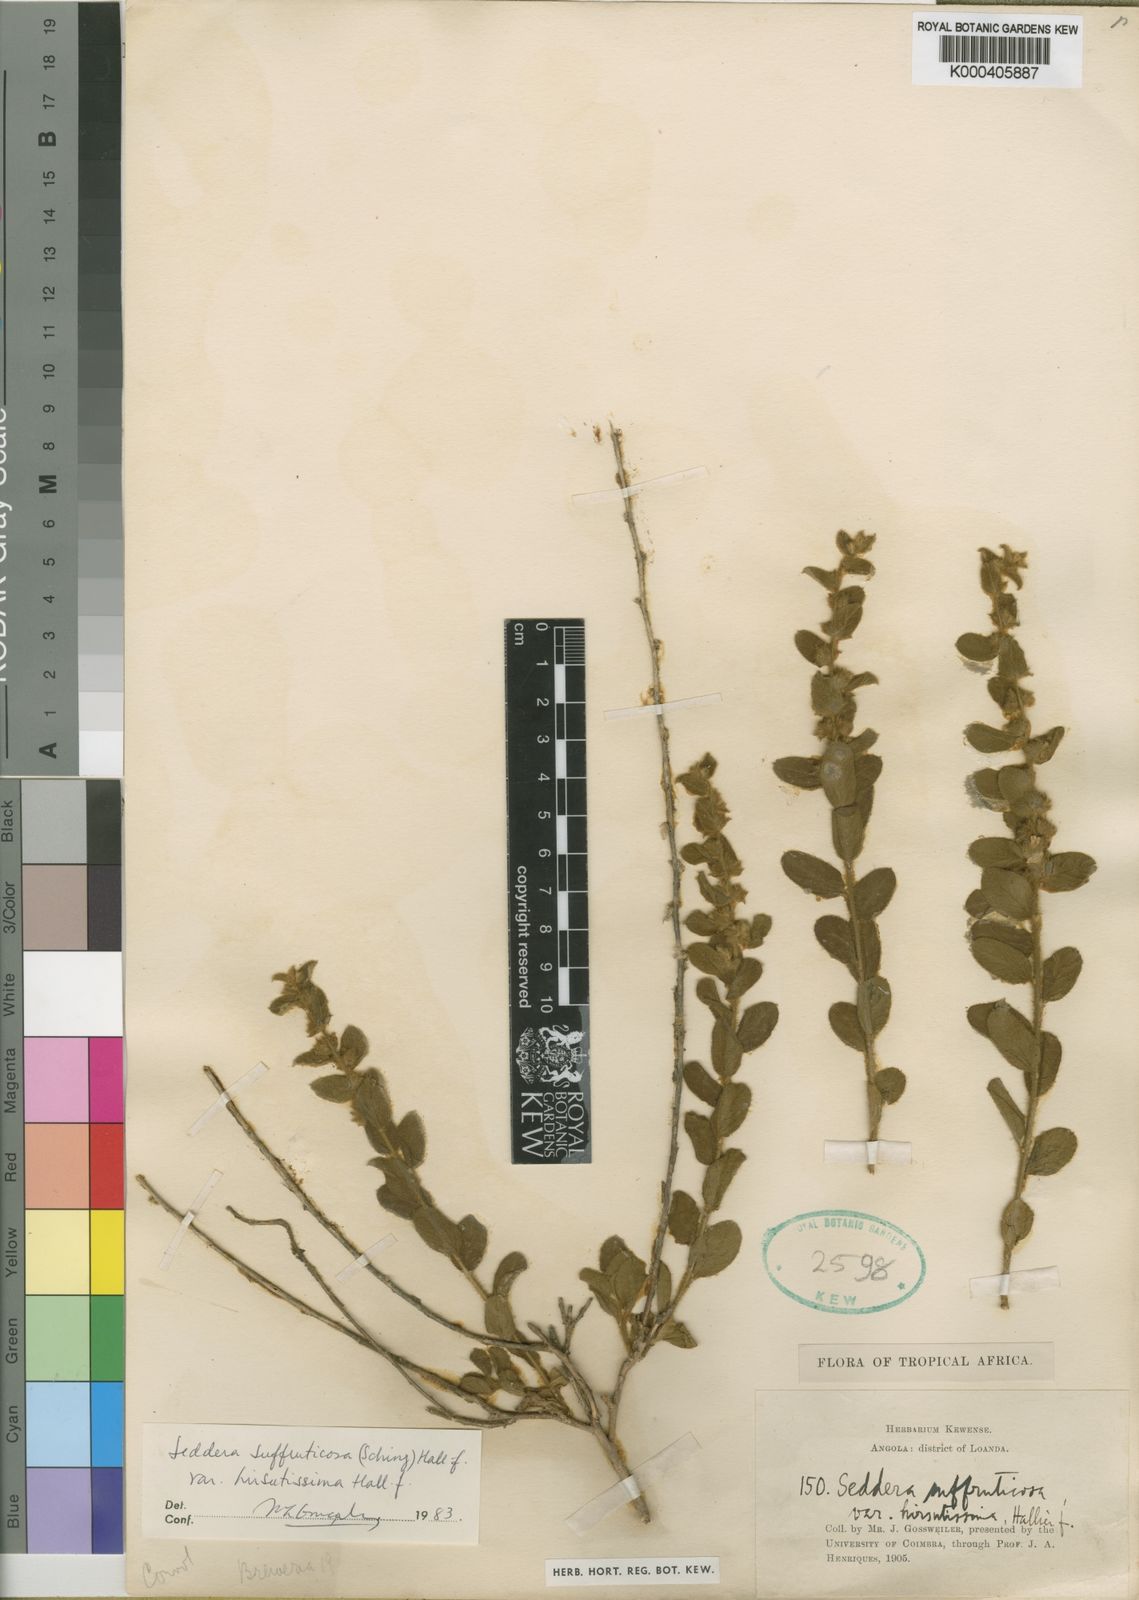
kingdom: Plantae
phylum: Tracheophyta
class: Magnoliopsida
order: Solanales
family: Convolvulaceae
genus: Seddera
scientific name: Seddera suffruticosa
